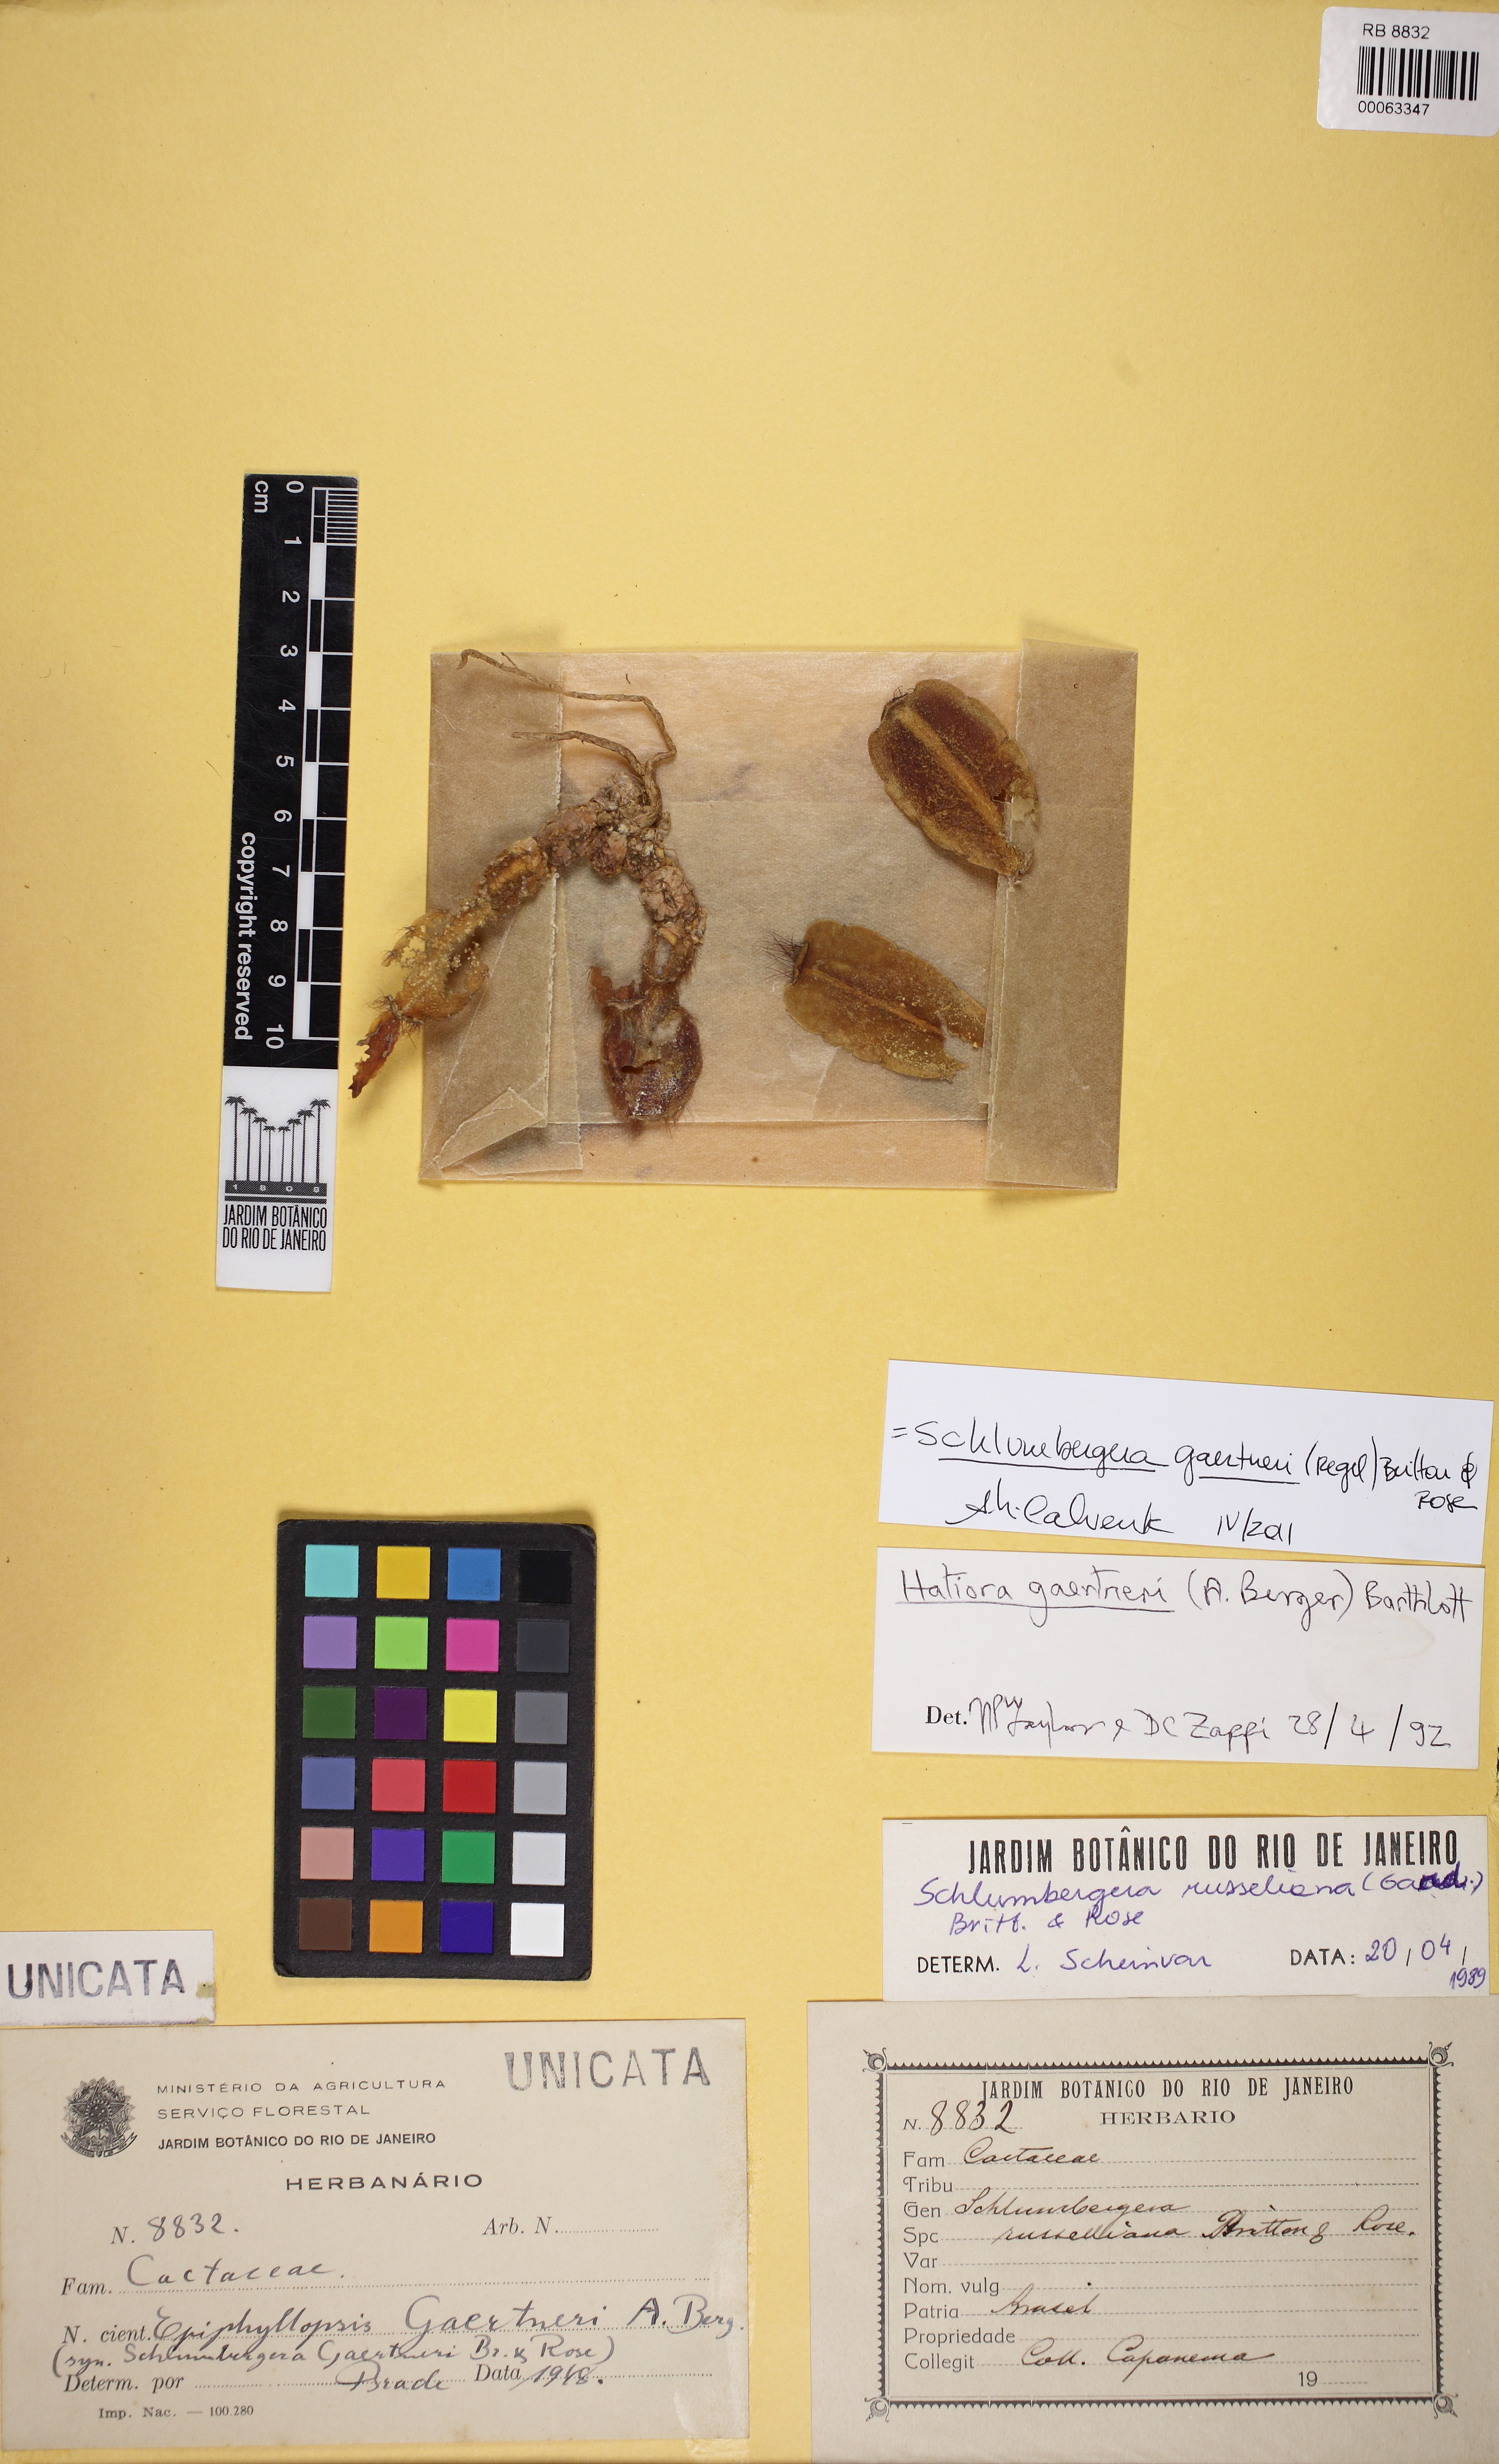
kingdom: Plantae
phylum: Tracheophyta
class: Magnoliopsida
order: Caryophyllales
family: Cactaceae
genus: Hatiora
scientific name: Hatiora gaertneri
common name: Easter cactus
